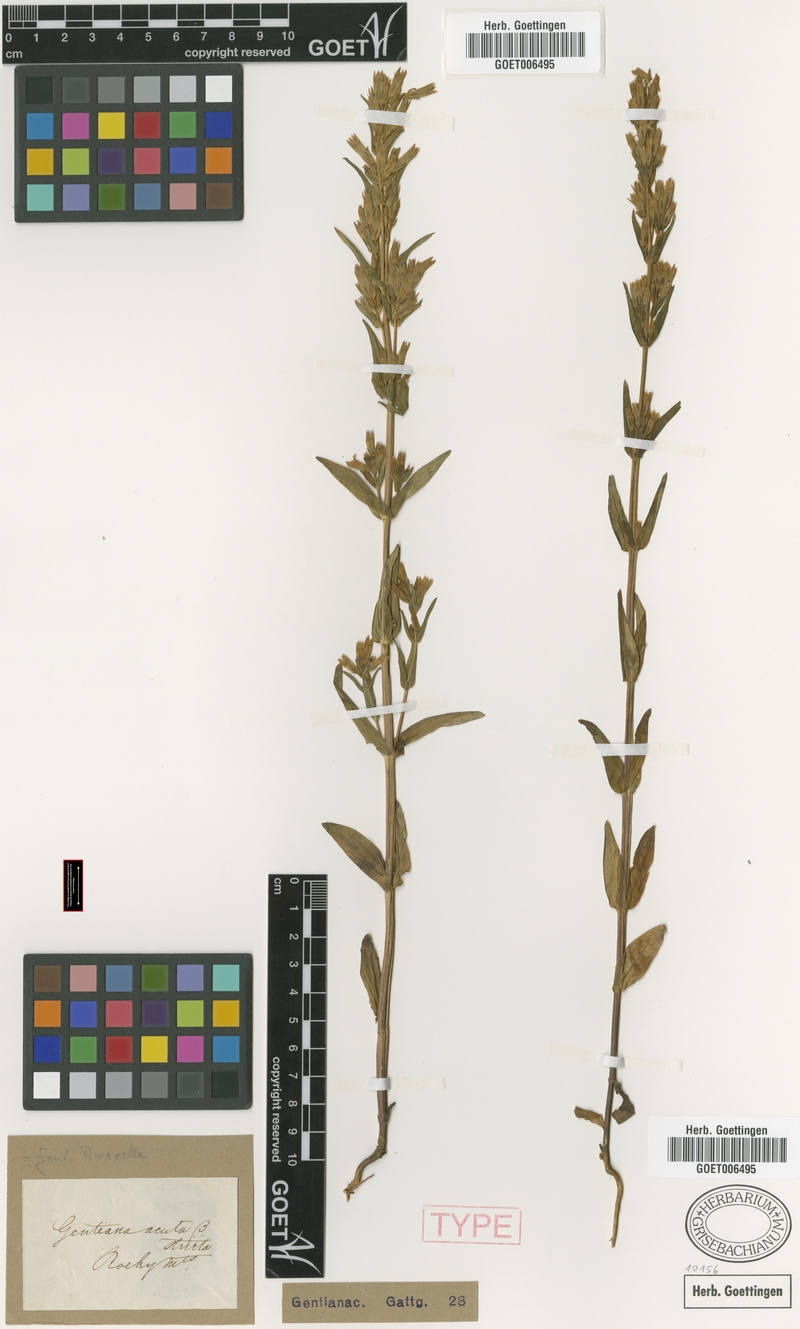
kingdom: Plantae
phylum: Tracheophyta
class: Magnoliopsida
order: Gentianales
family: Gentianaceae
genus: Gentianella
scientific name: Gentianella amarella
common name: Autumn gentian
